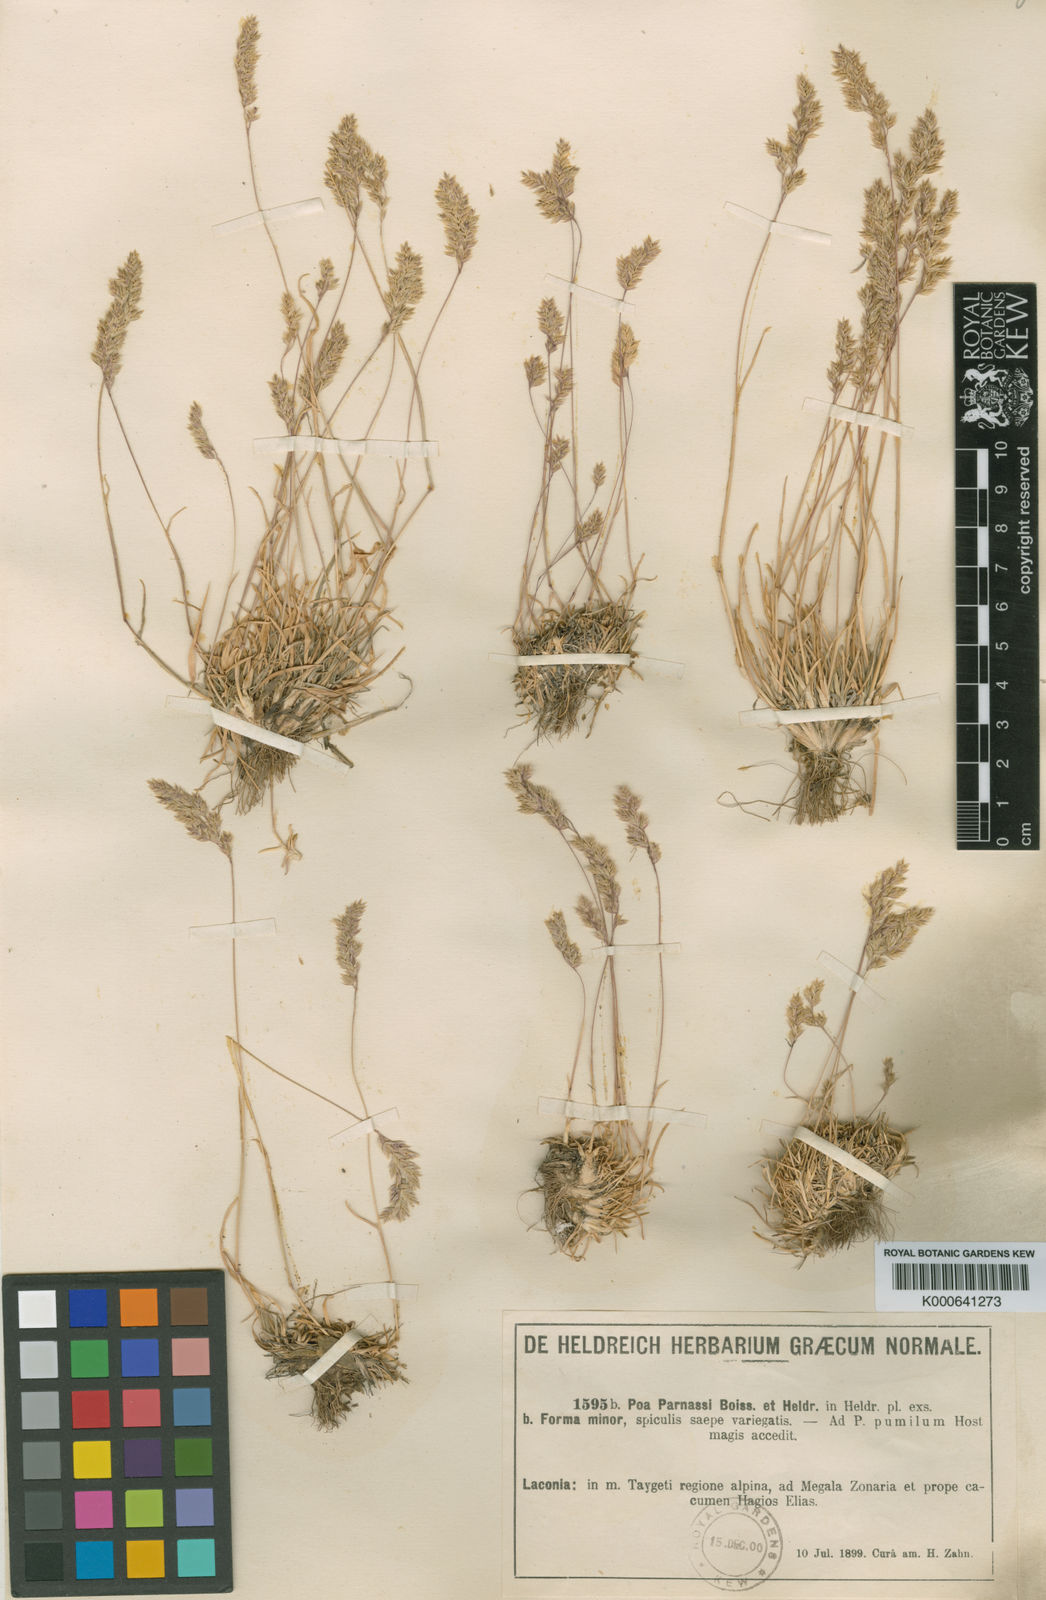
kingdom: Plantae
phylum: Tracheophyta
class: Liliopsida
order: Poales
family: Poaceae
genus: Briza
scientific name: Briza media
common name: Quaking grass
